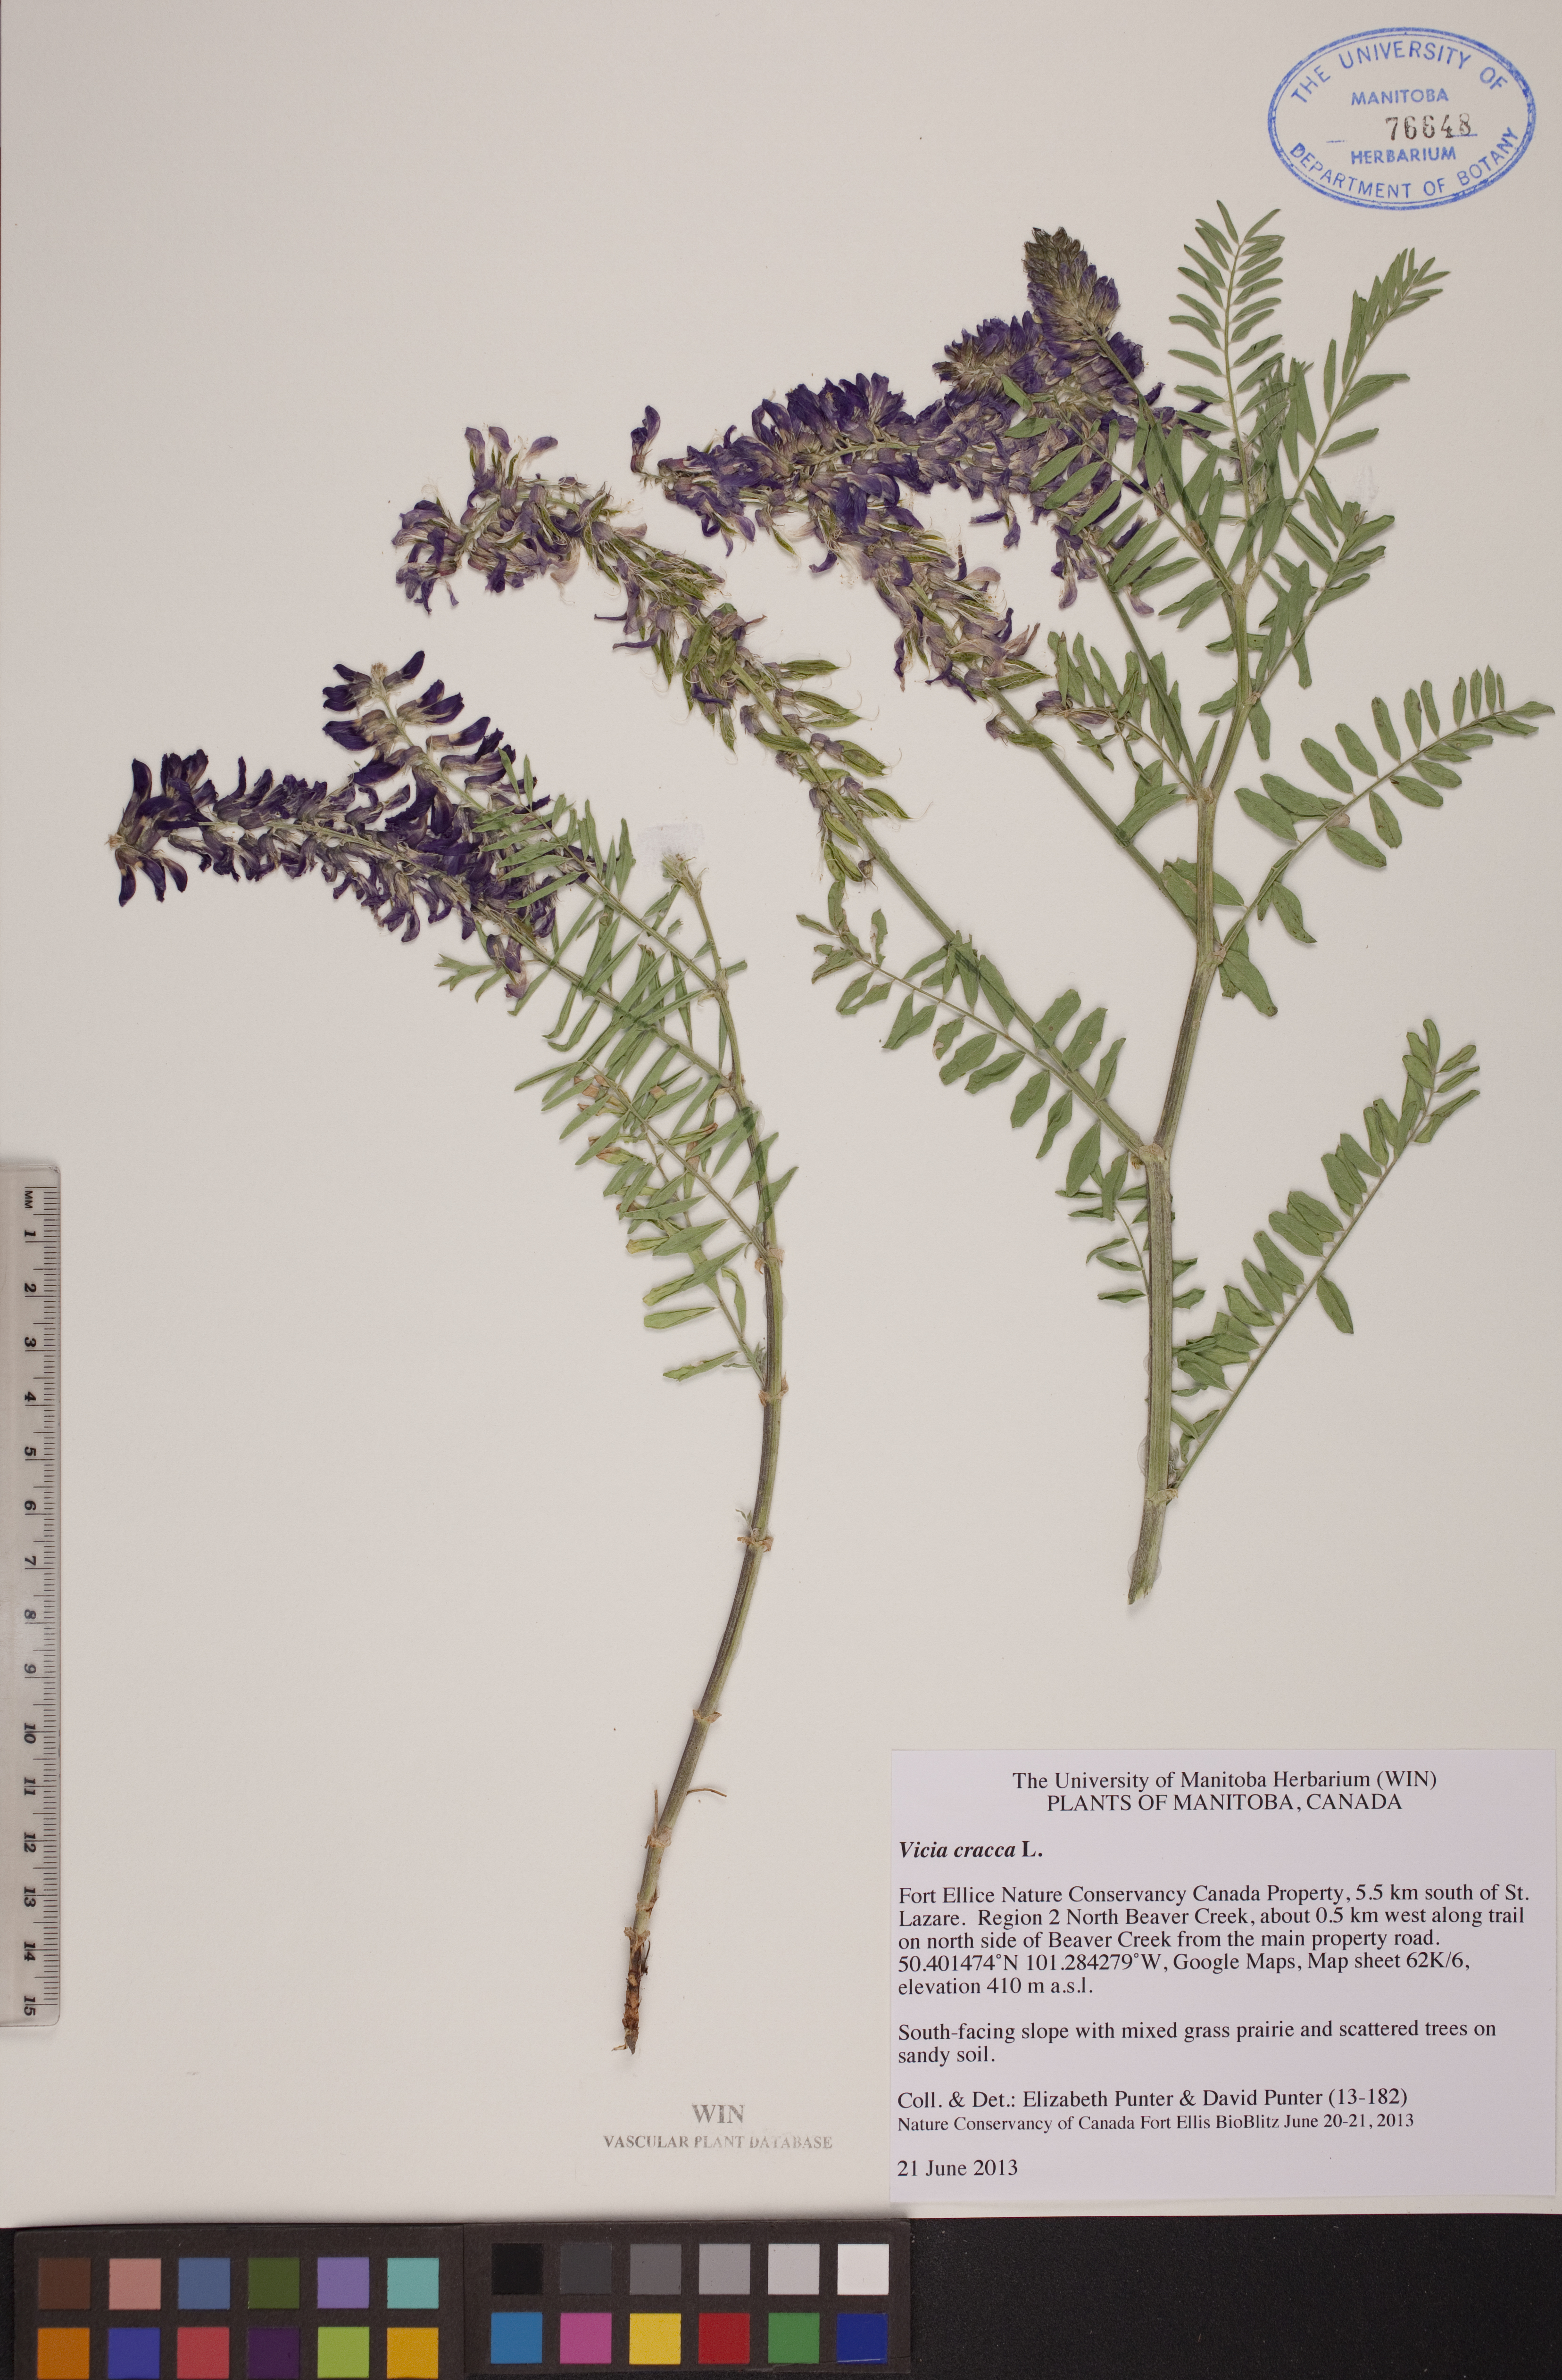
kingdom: Plantae
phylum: Tracheophyta
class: Magnoliopsida
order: Fabales
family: Fabaceae
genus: Vicia
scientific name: Vicia cracca
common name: Bird vetch
